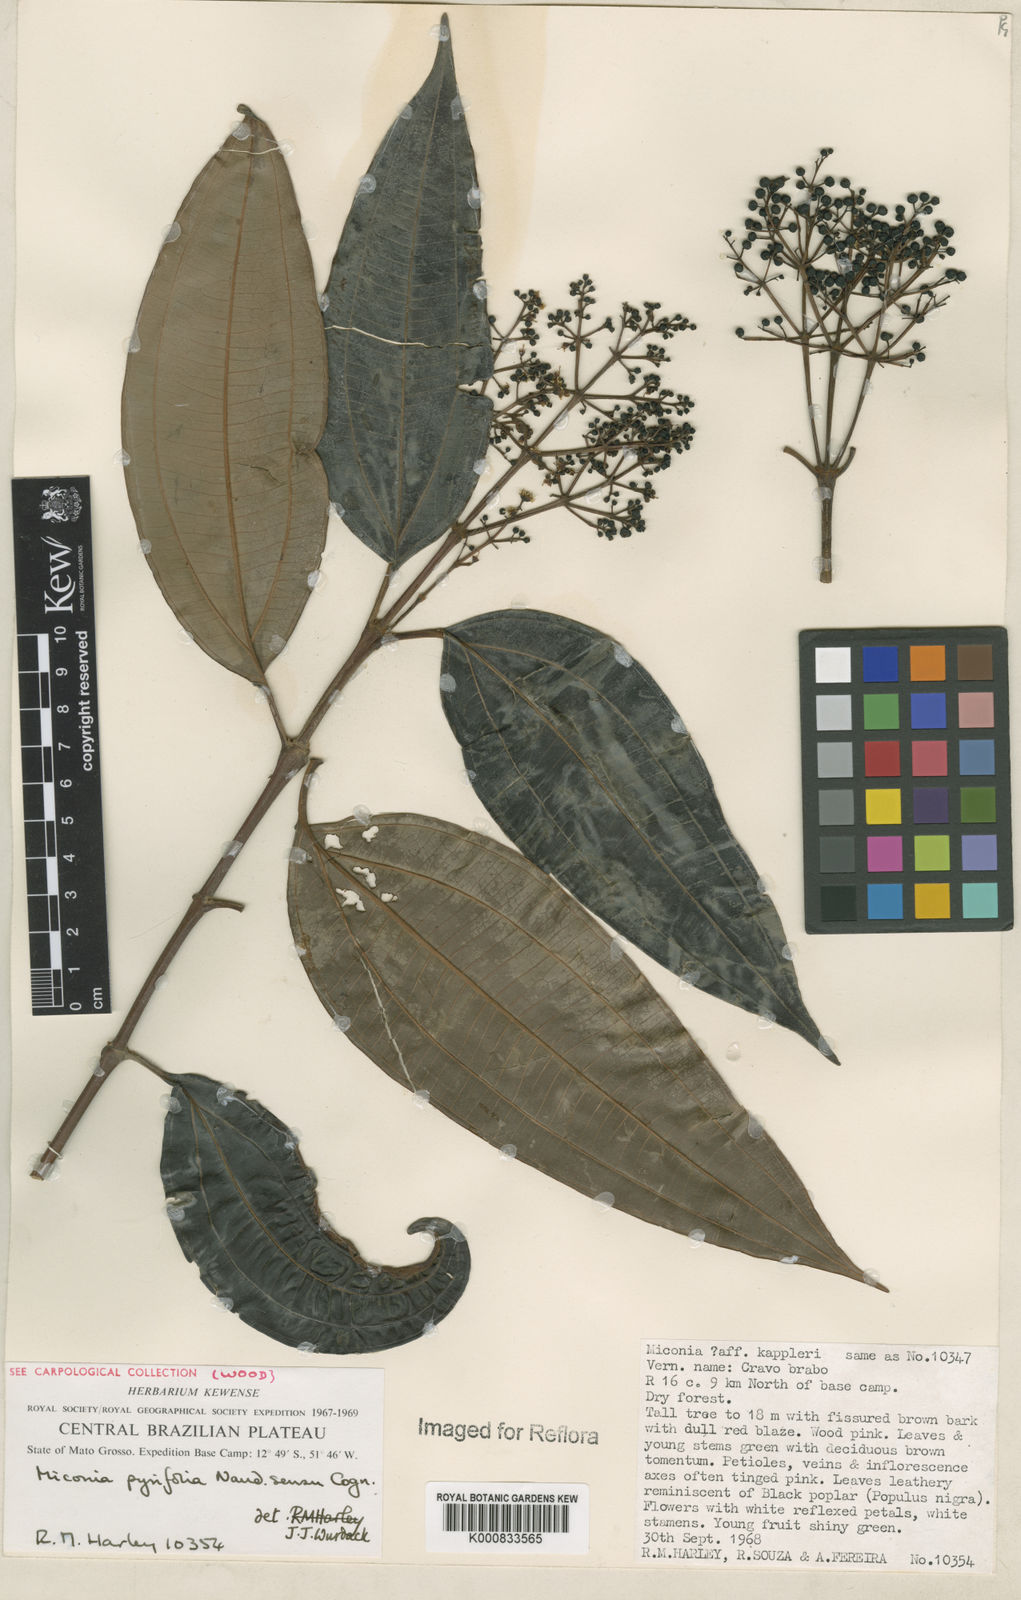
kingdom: Plantae
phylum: Tracheophyta
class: Magnoliopsida
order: Myrtales
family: Melastomataceae
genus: Miconia
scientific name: Miconia pyrifolia
